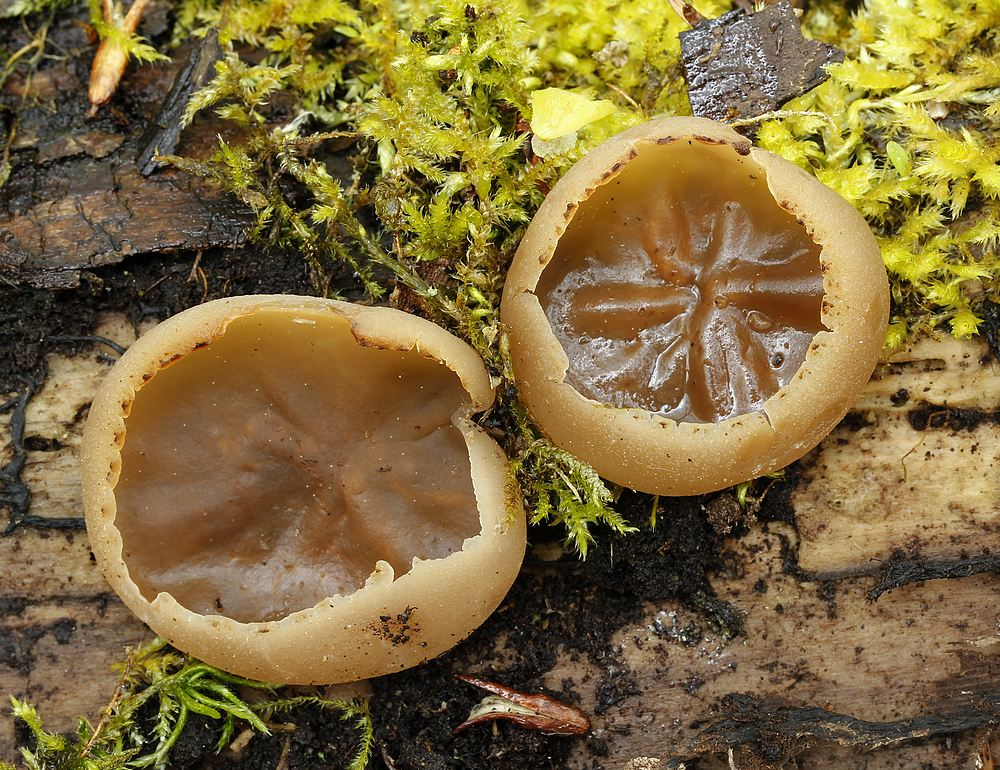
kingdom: Fungi
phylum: Ascomycota
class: Pezizomycetes
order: Pezizales
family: Pezizaceae
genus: Peziza
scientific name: Peziza varia
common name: Ved-bægersvamp
